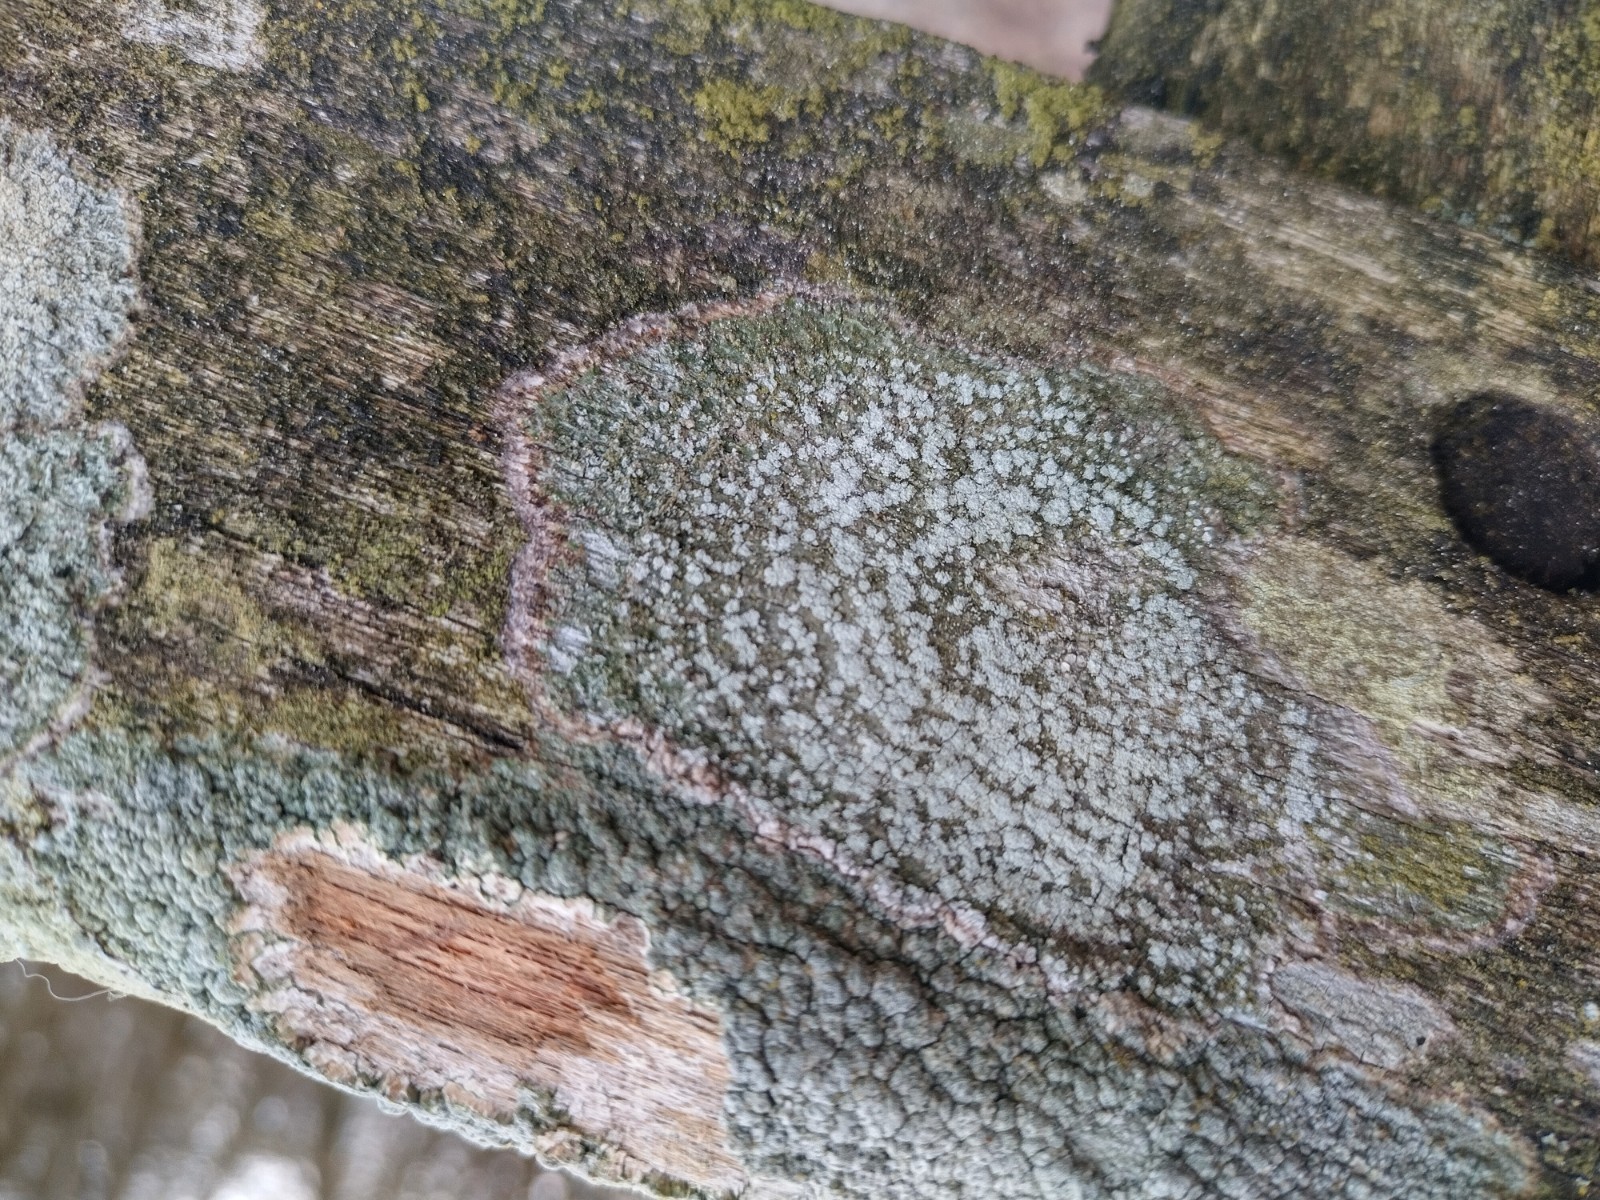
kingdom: Fungi
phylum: Ascomycota
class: Lecanoromycetes
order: Pertusariales
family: Pertusariaceae
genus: Lepra
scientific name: Lepra amara
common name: bitter prikvortelav
